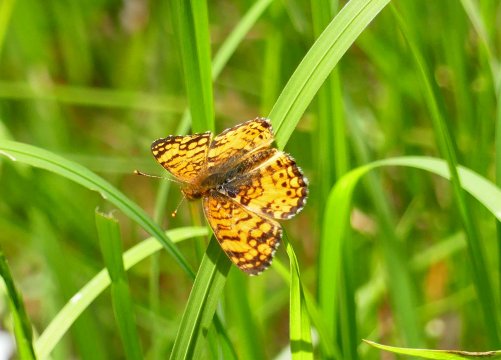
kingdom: Animalia
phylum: Arthropoda
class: Insecta
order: Lepidoptera
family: Nymphalidae
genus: Eresia
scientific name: Eresia aveyrona
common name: Mylitta Crescent
